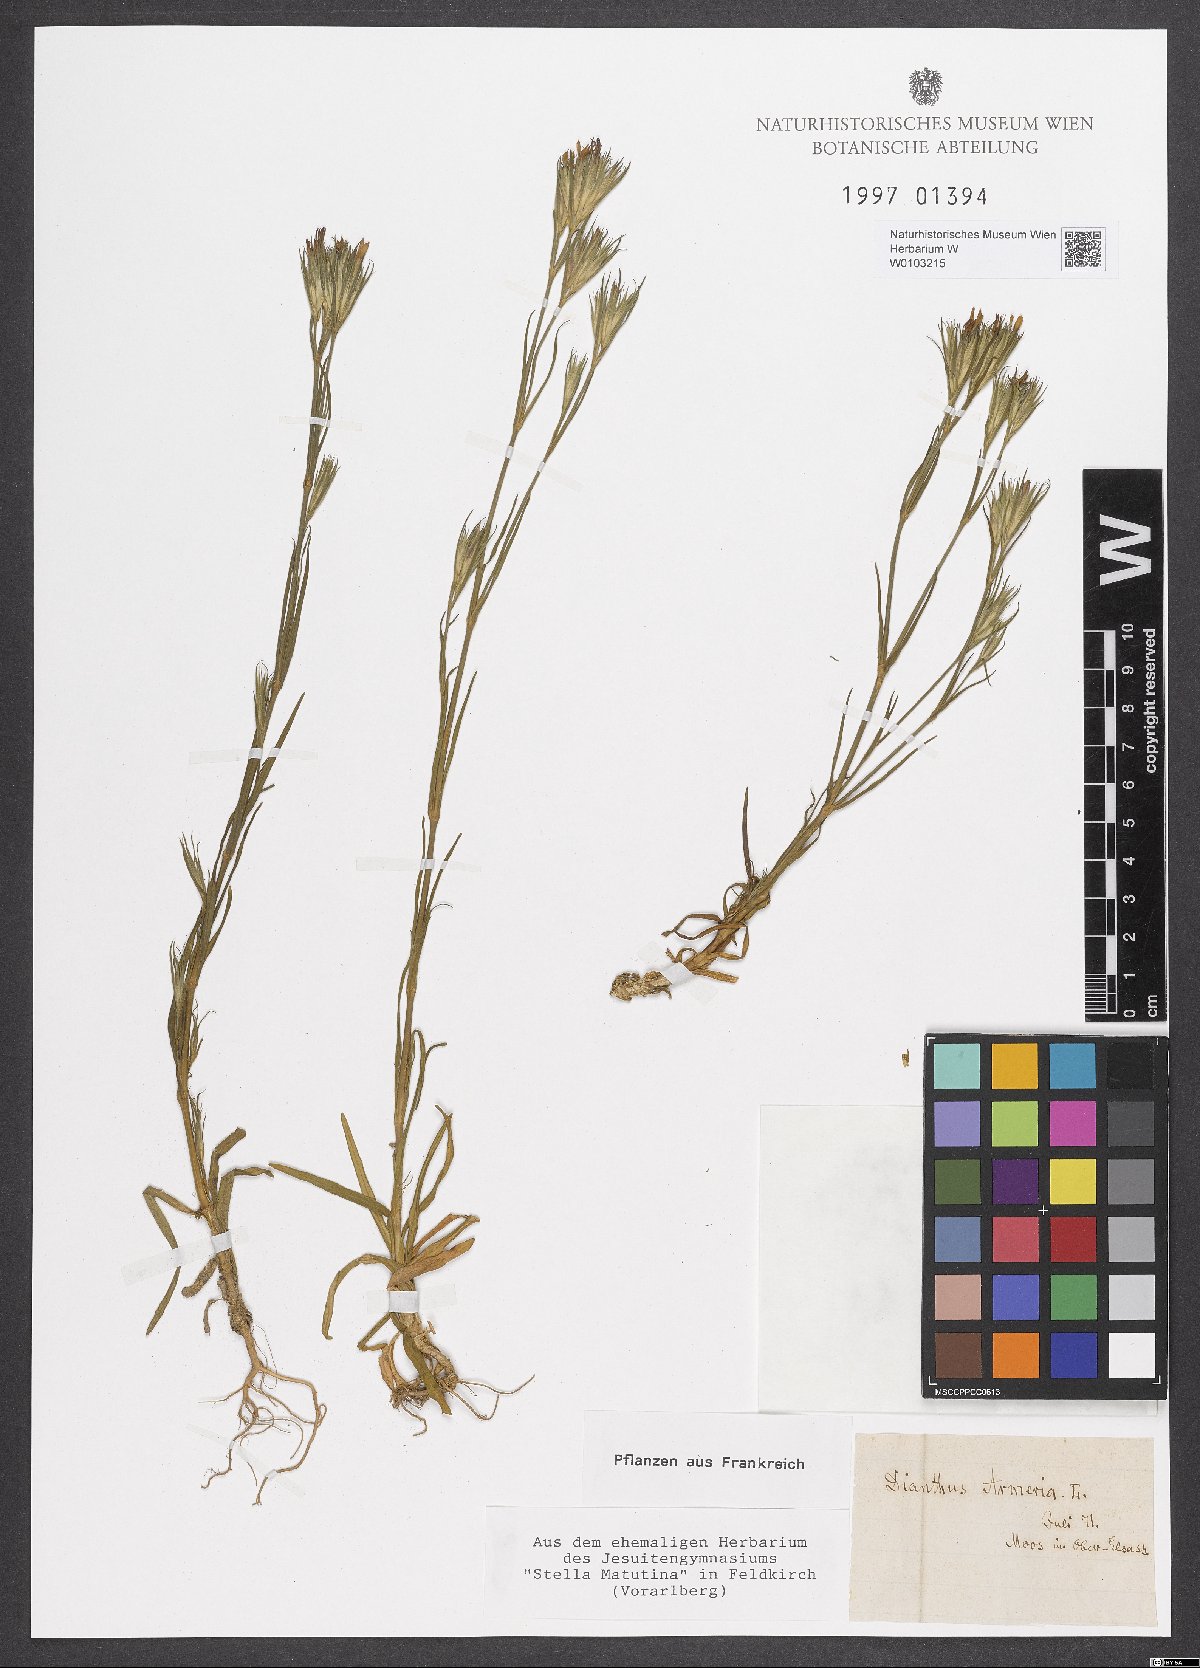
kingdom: Plantae
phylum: Tracheophyta
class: Magnoliopsida
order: Caryophyllales
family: Caryophyllaceae
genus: Dianthus
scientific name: Dianthus armeria
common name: Deptford pink
